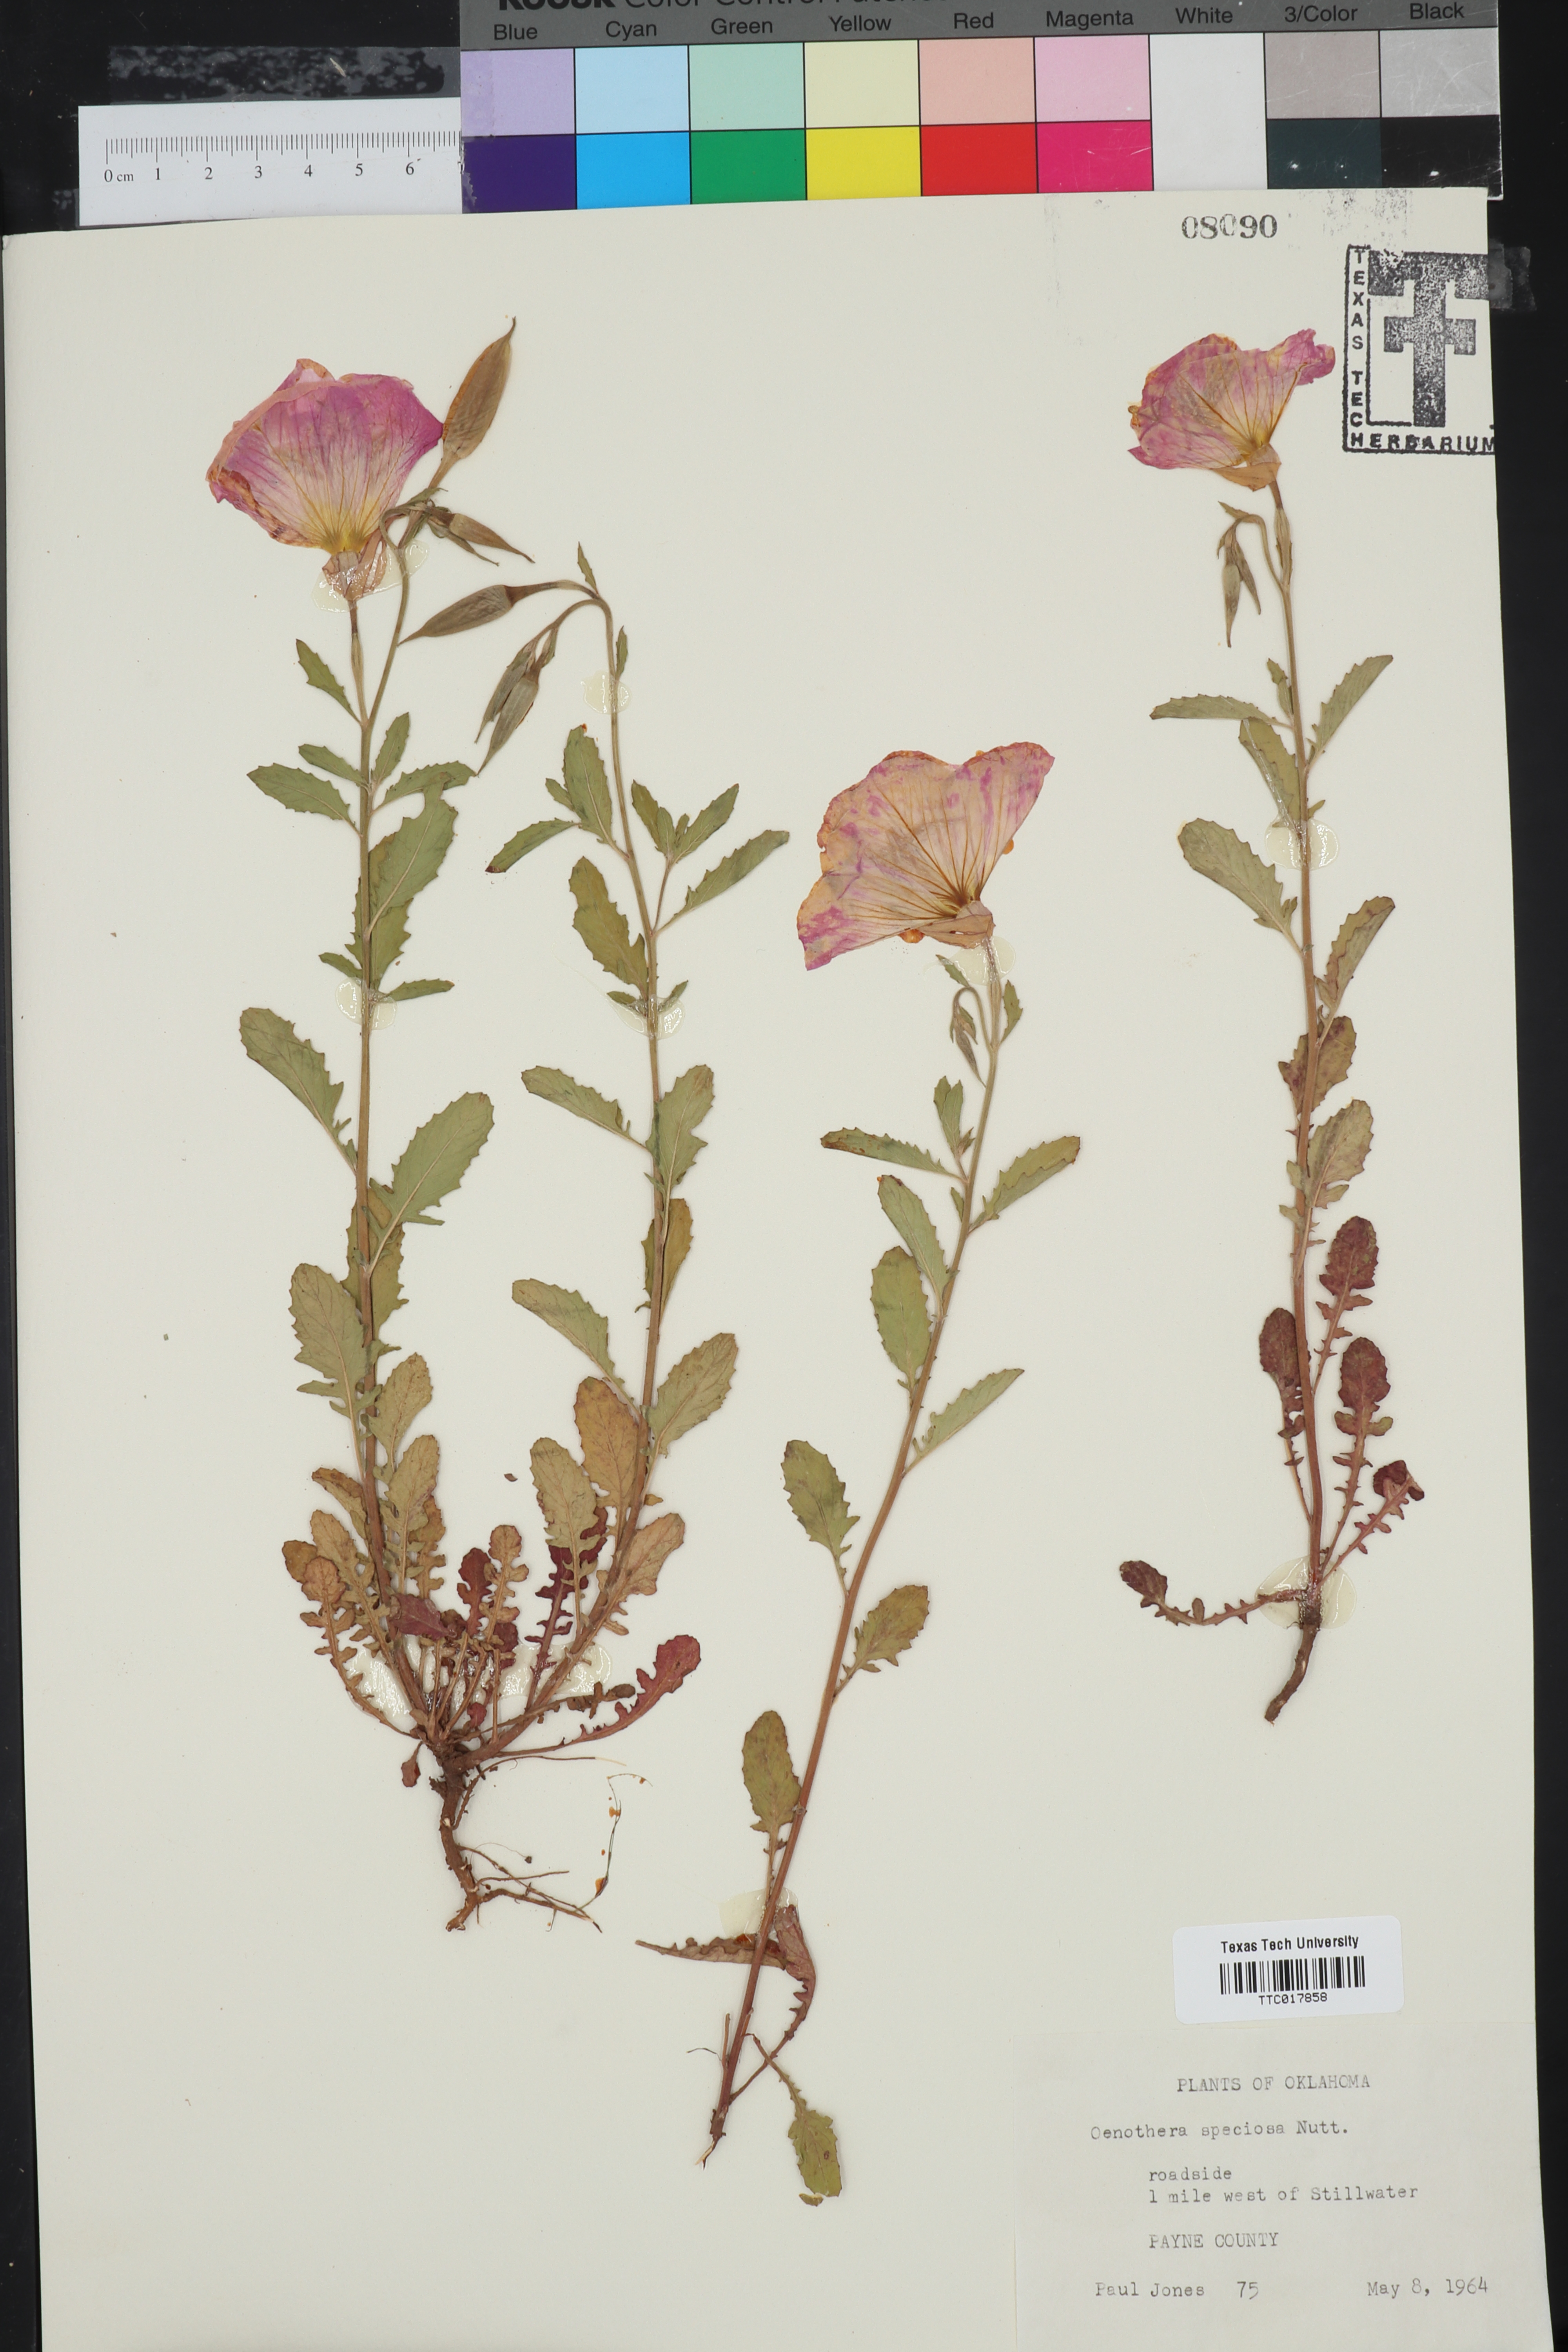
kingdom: Plantae
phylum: Tracheophyta
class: Magnoliopsida
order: Myrtales
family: Onagraceae
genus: Oenothera
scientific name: Oenothera speciosa
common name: White evening-primrose
